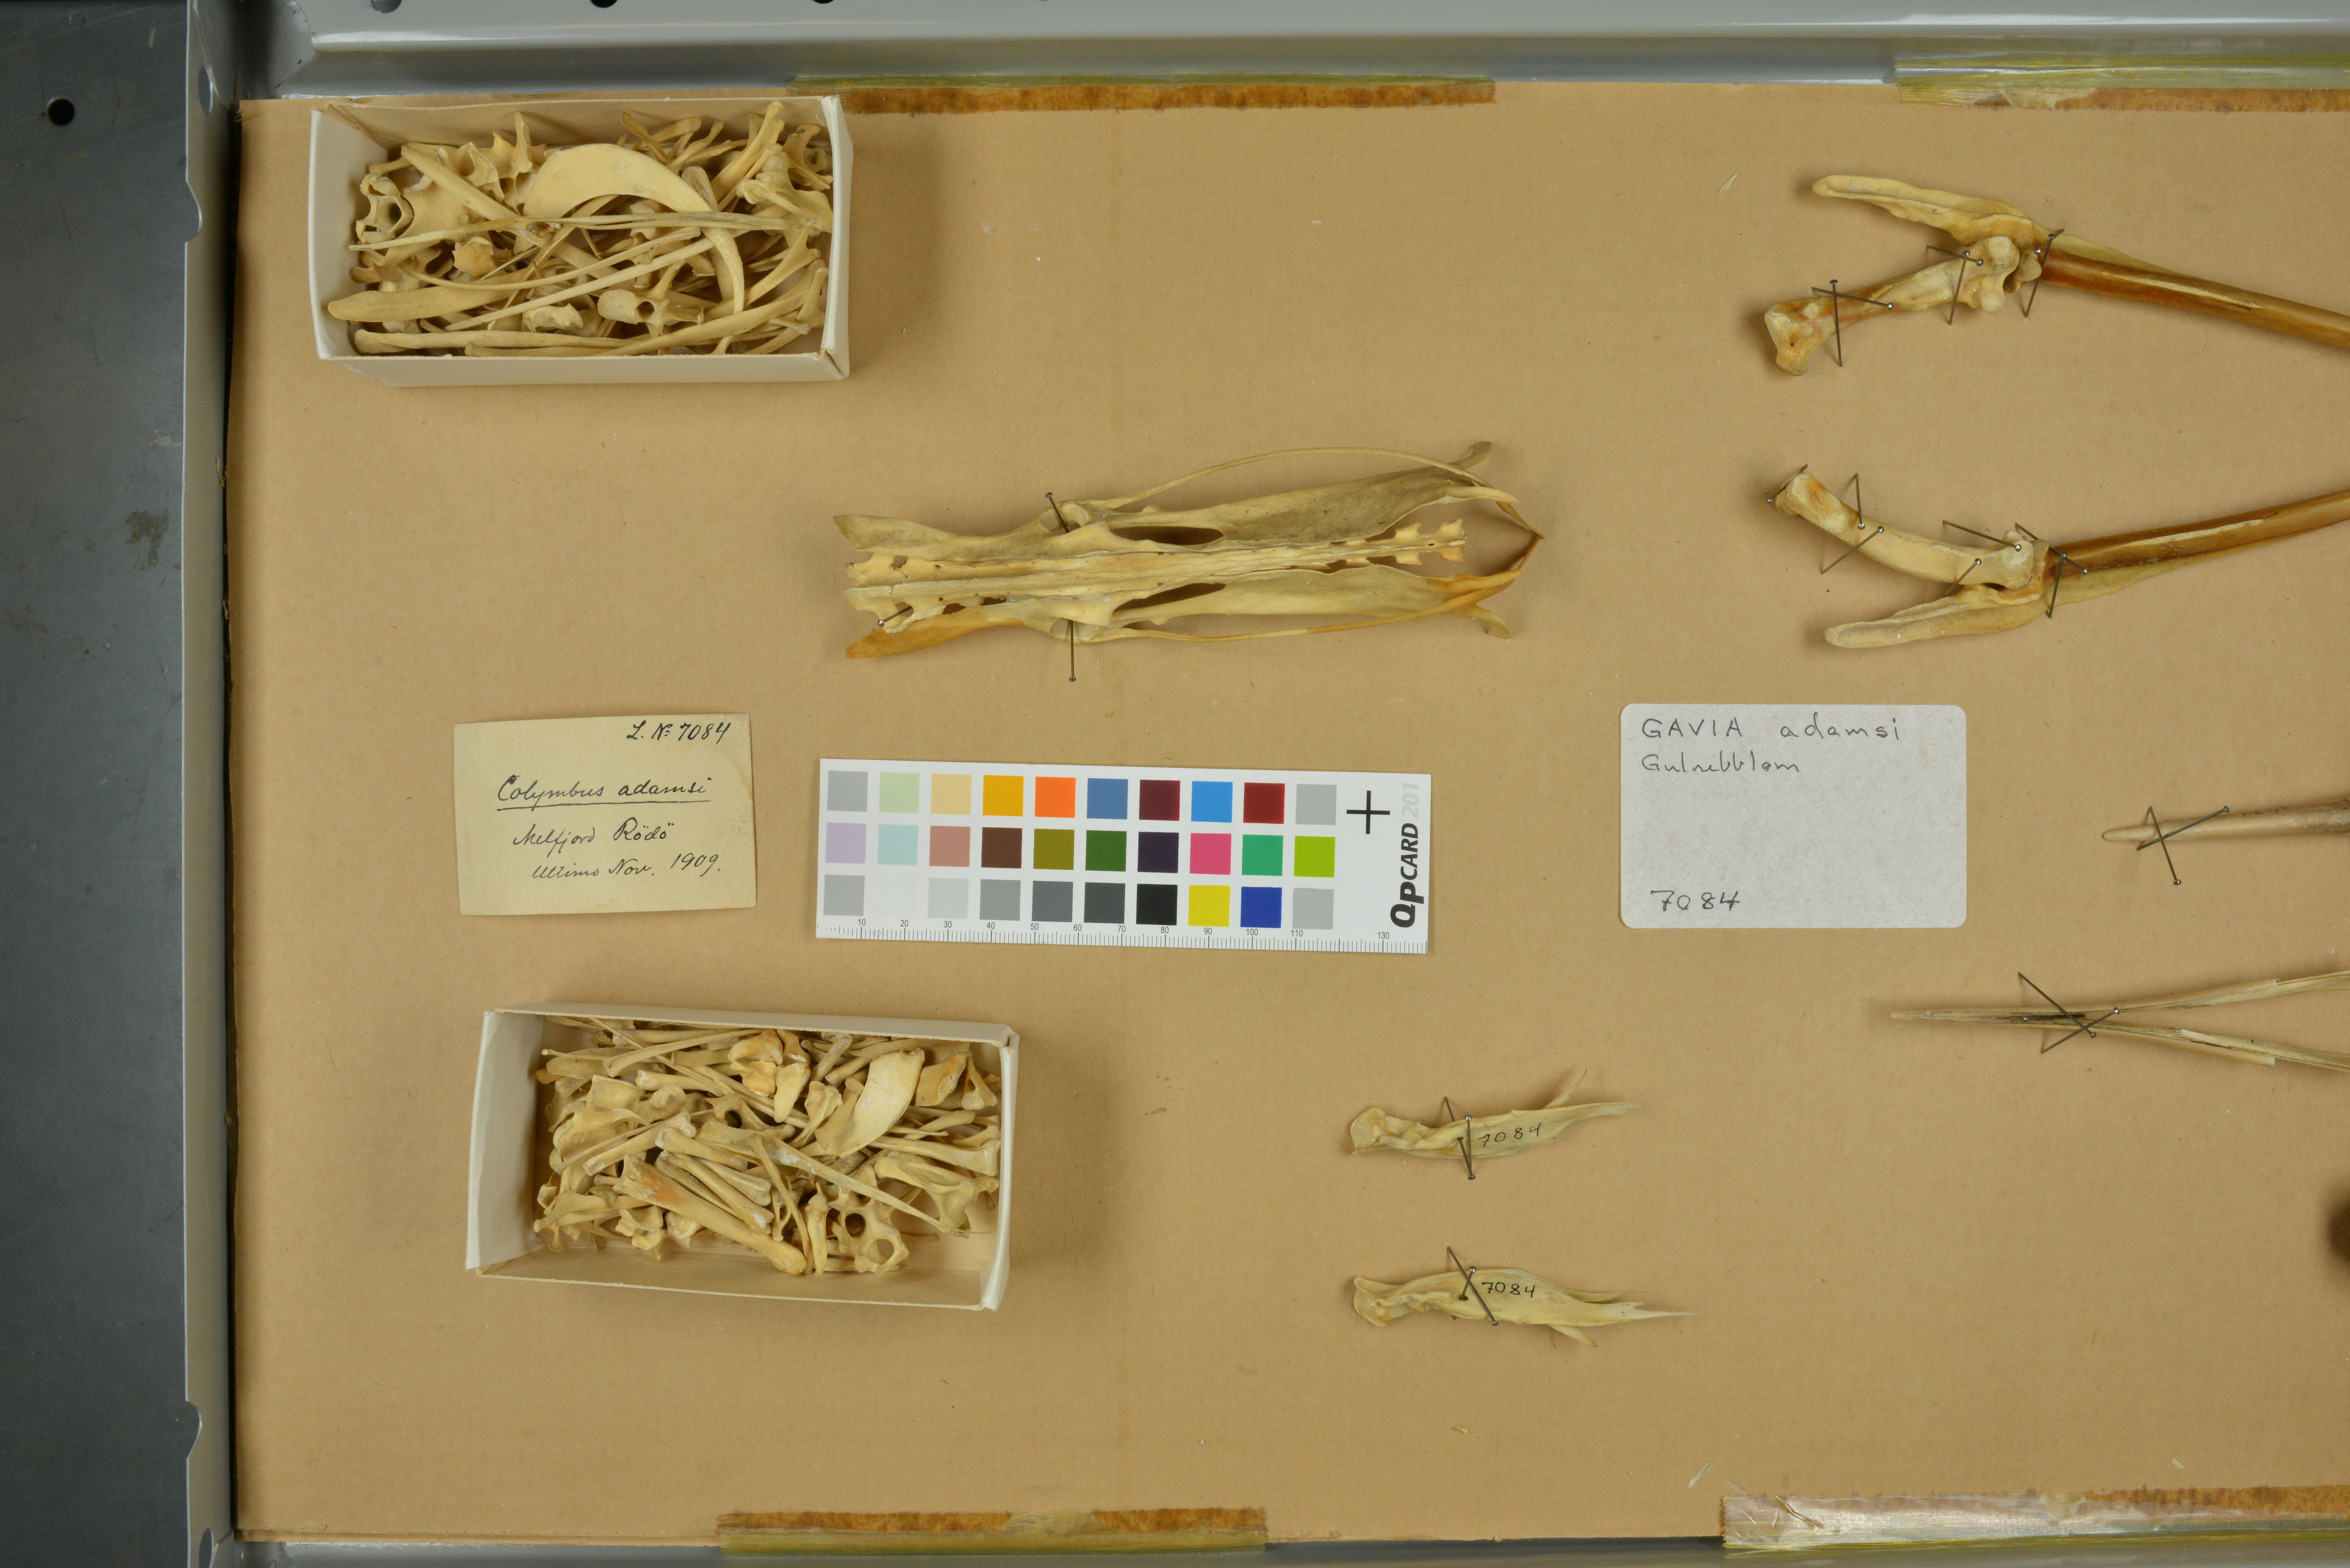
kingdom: Animalia
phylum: Chordata
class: Aves
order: Gaviiformes
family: Gaviidae
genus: Gavia
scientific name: Gavia adamsii
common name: Yellow-billed loon
